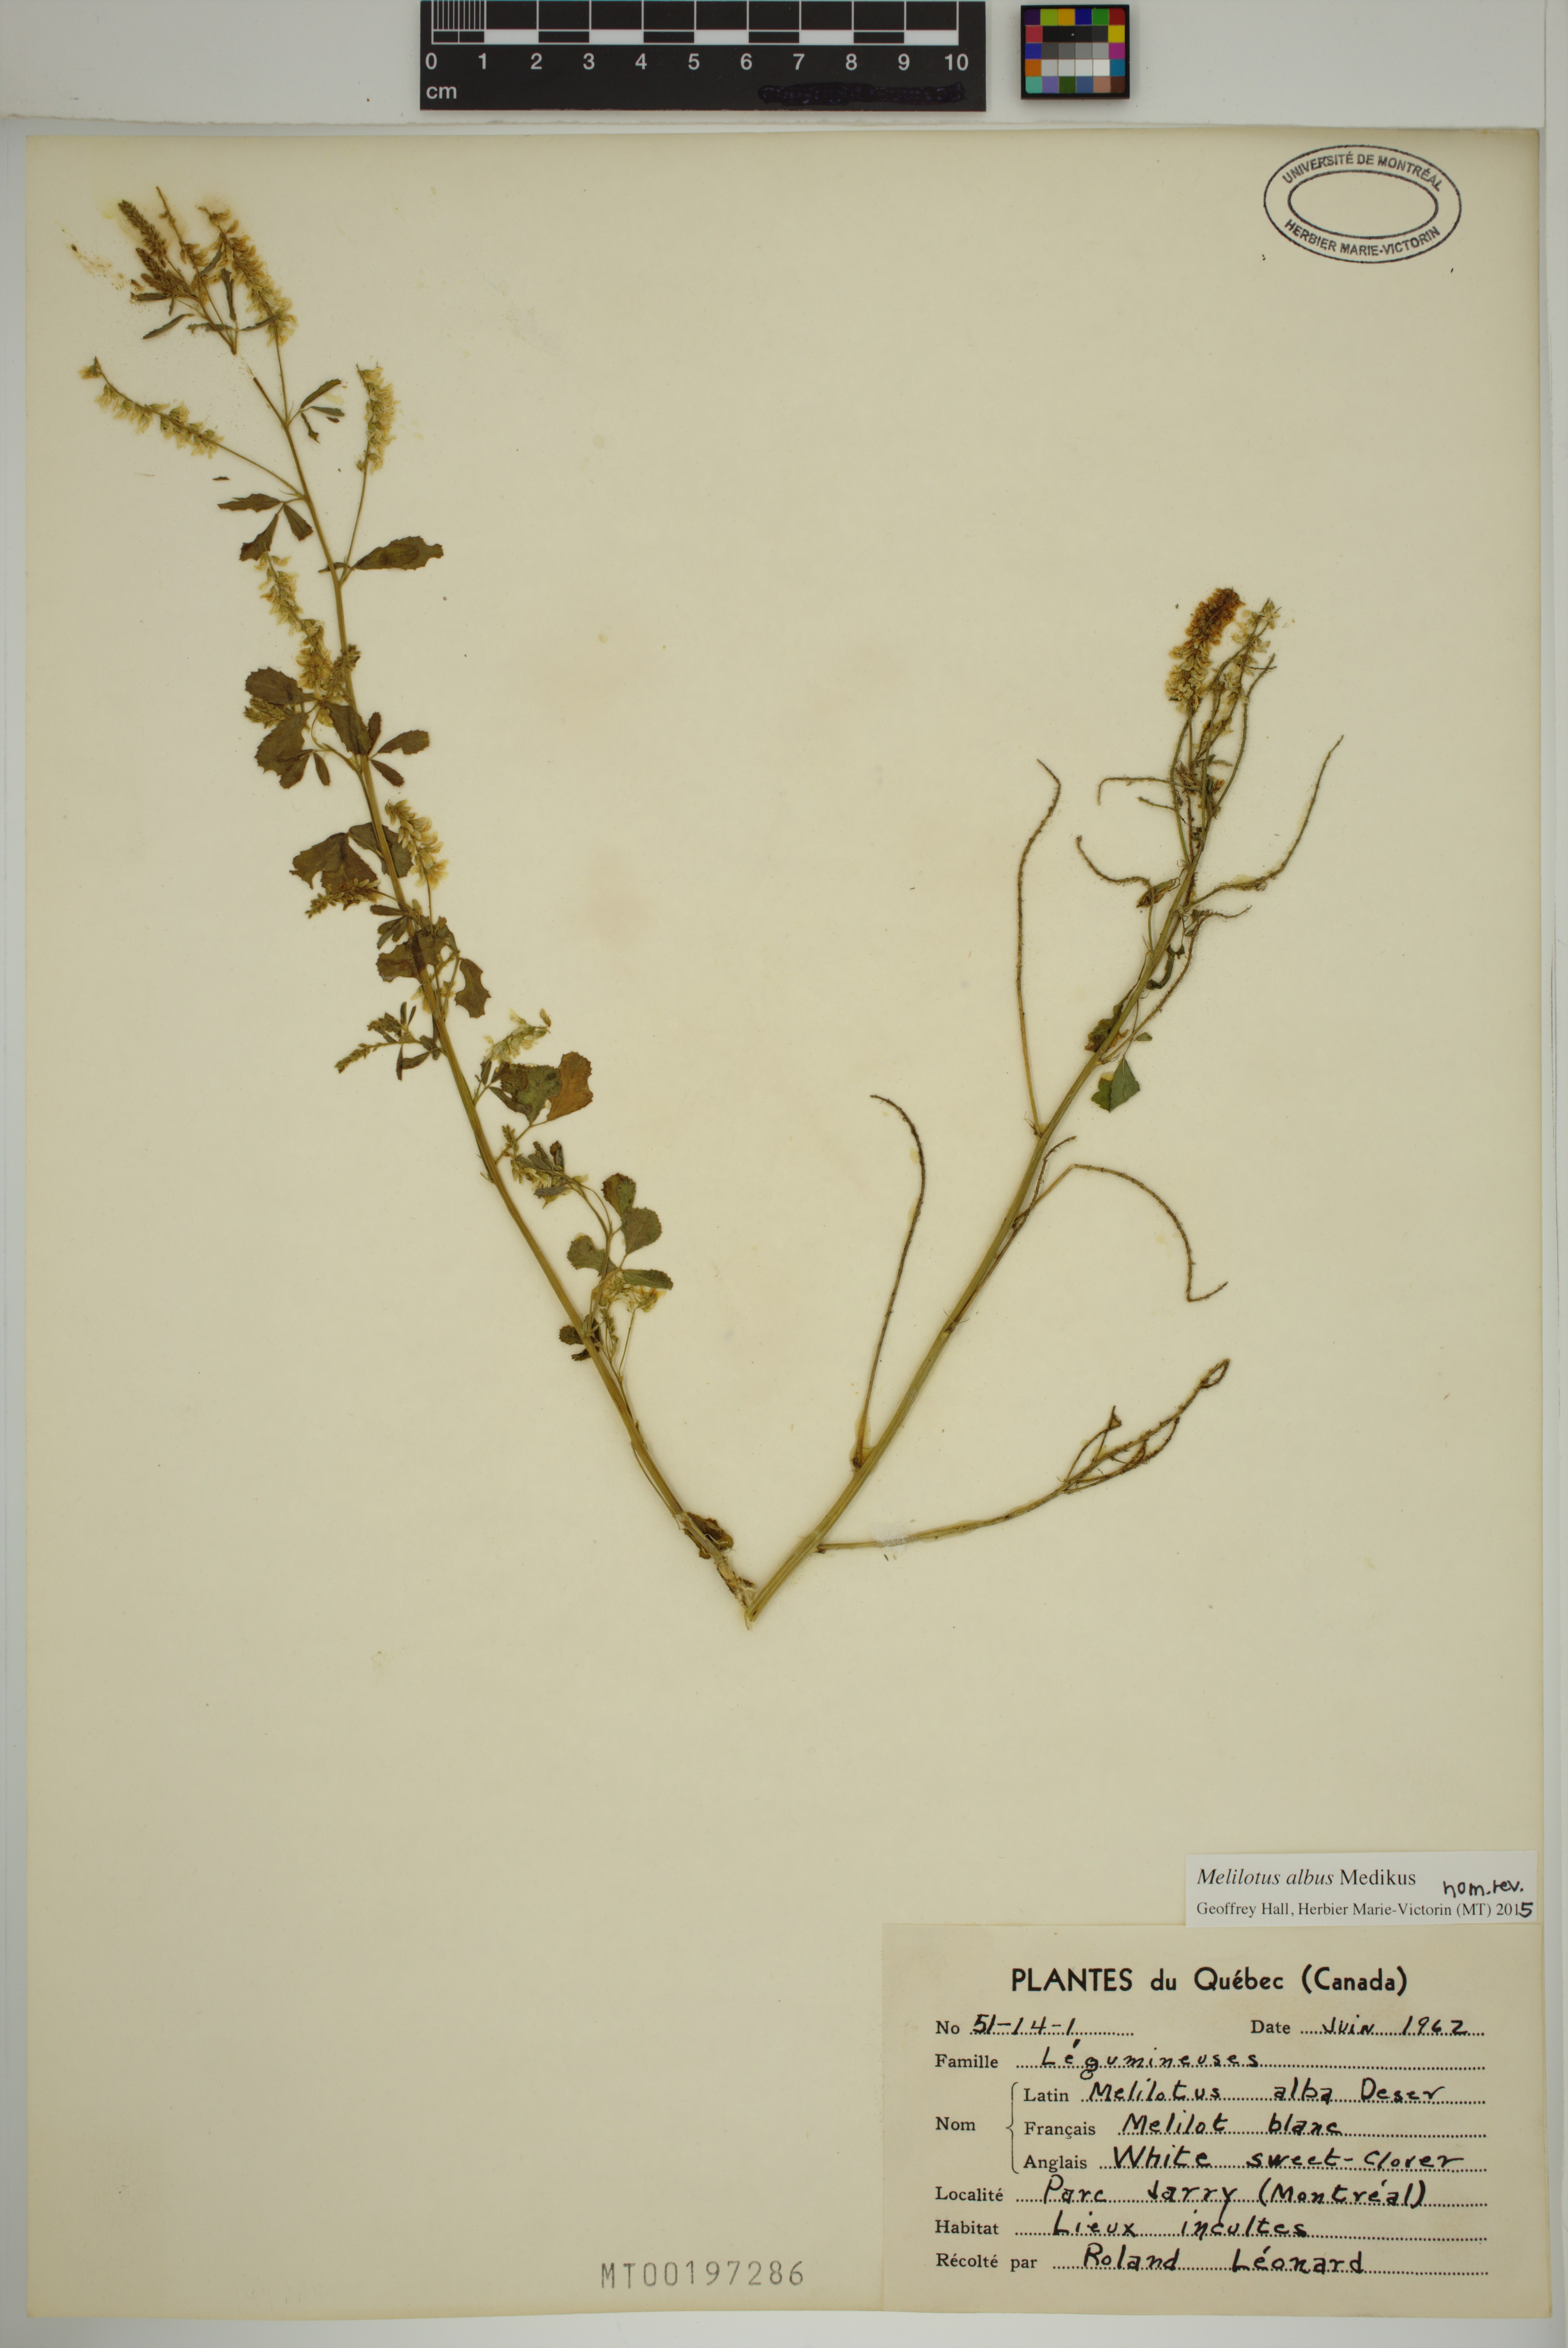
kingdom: Plantae
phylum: Tracheophyta
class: Magnoliopsida
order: Fabales
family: Fabaceae
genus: Melilotus
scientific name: Melilotus albus
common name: White melilot
